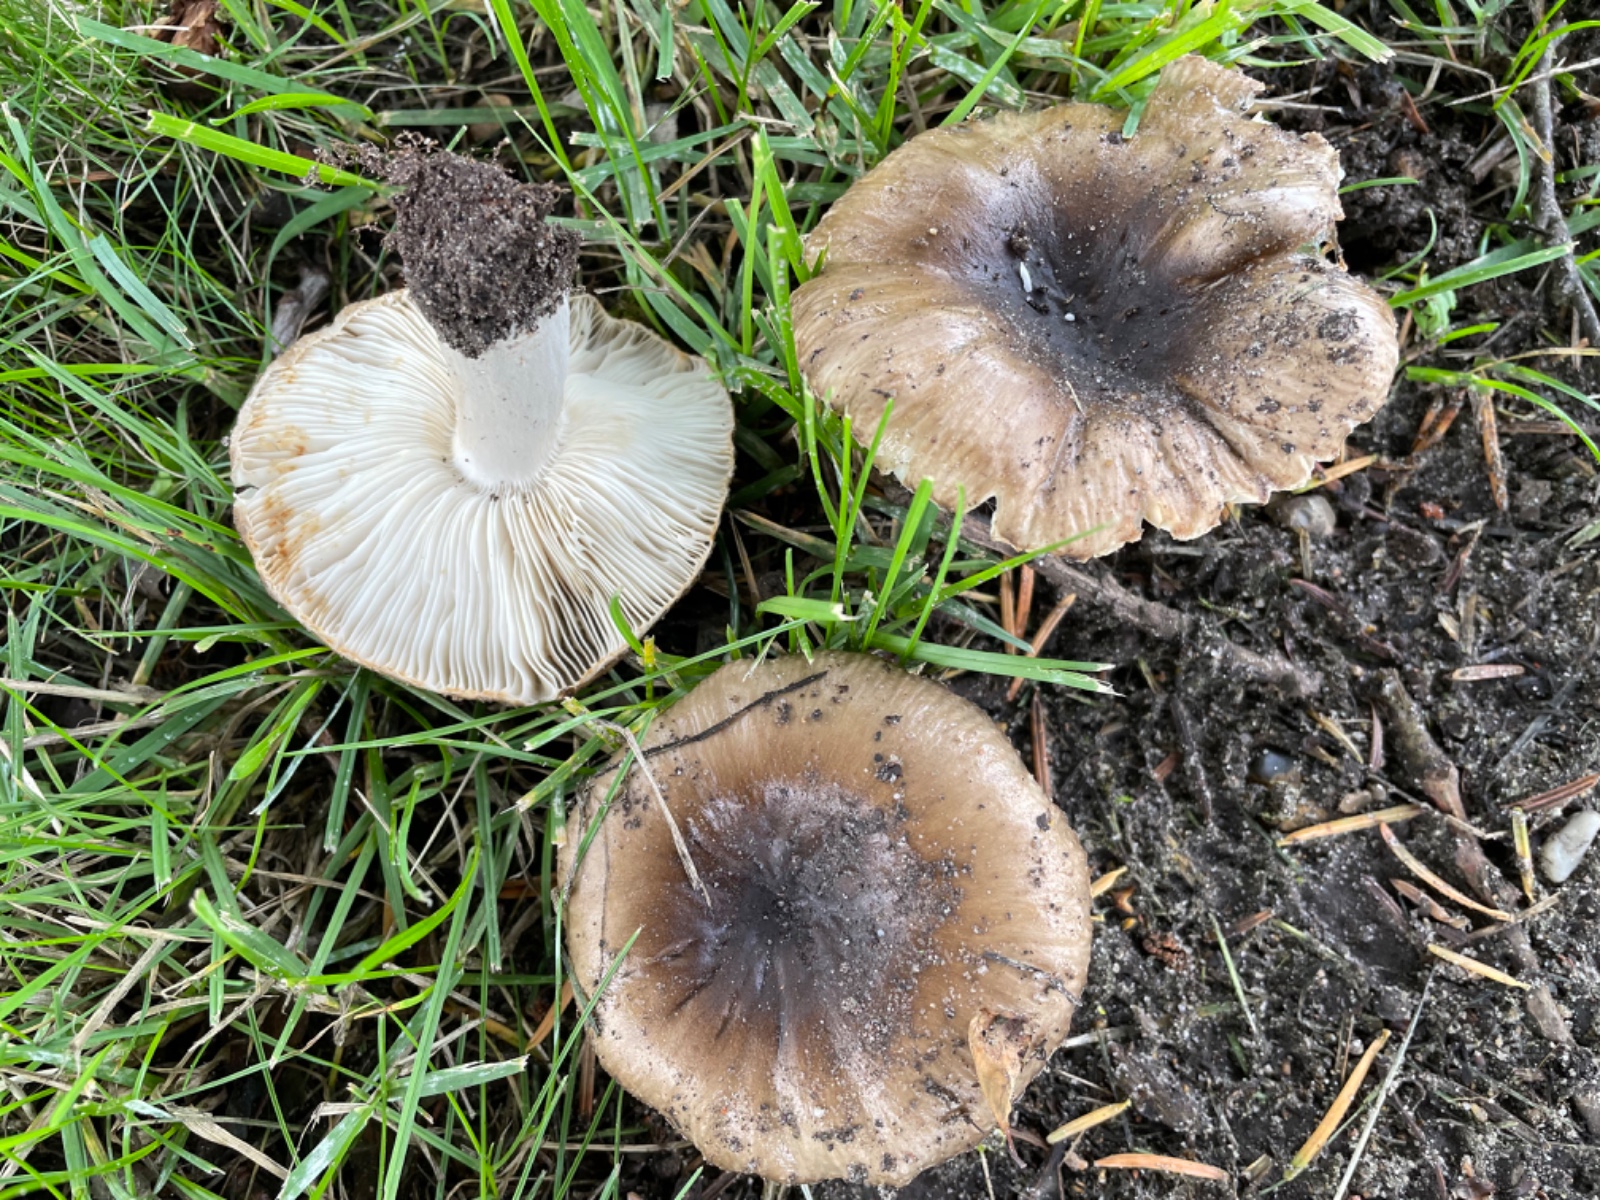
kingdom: Fungi
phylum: Basidiomycota
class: Agaricomycetes
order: Russulales
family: Russulaceae
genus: Russula
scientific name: Russula amoenolens
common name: skarp kam-skørhat
